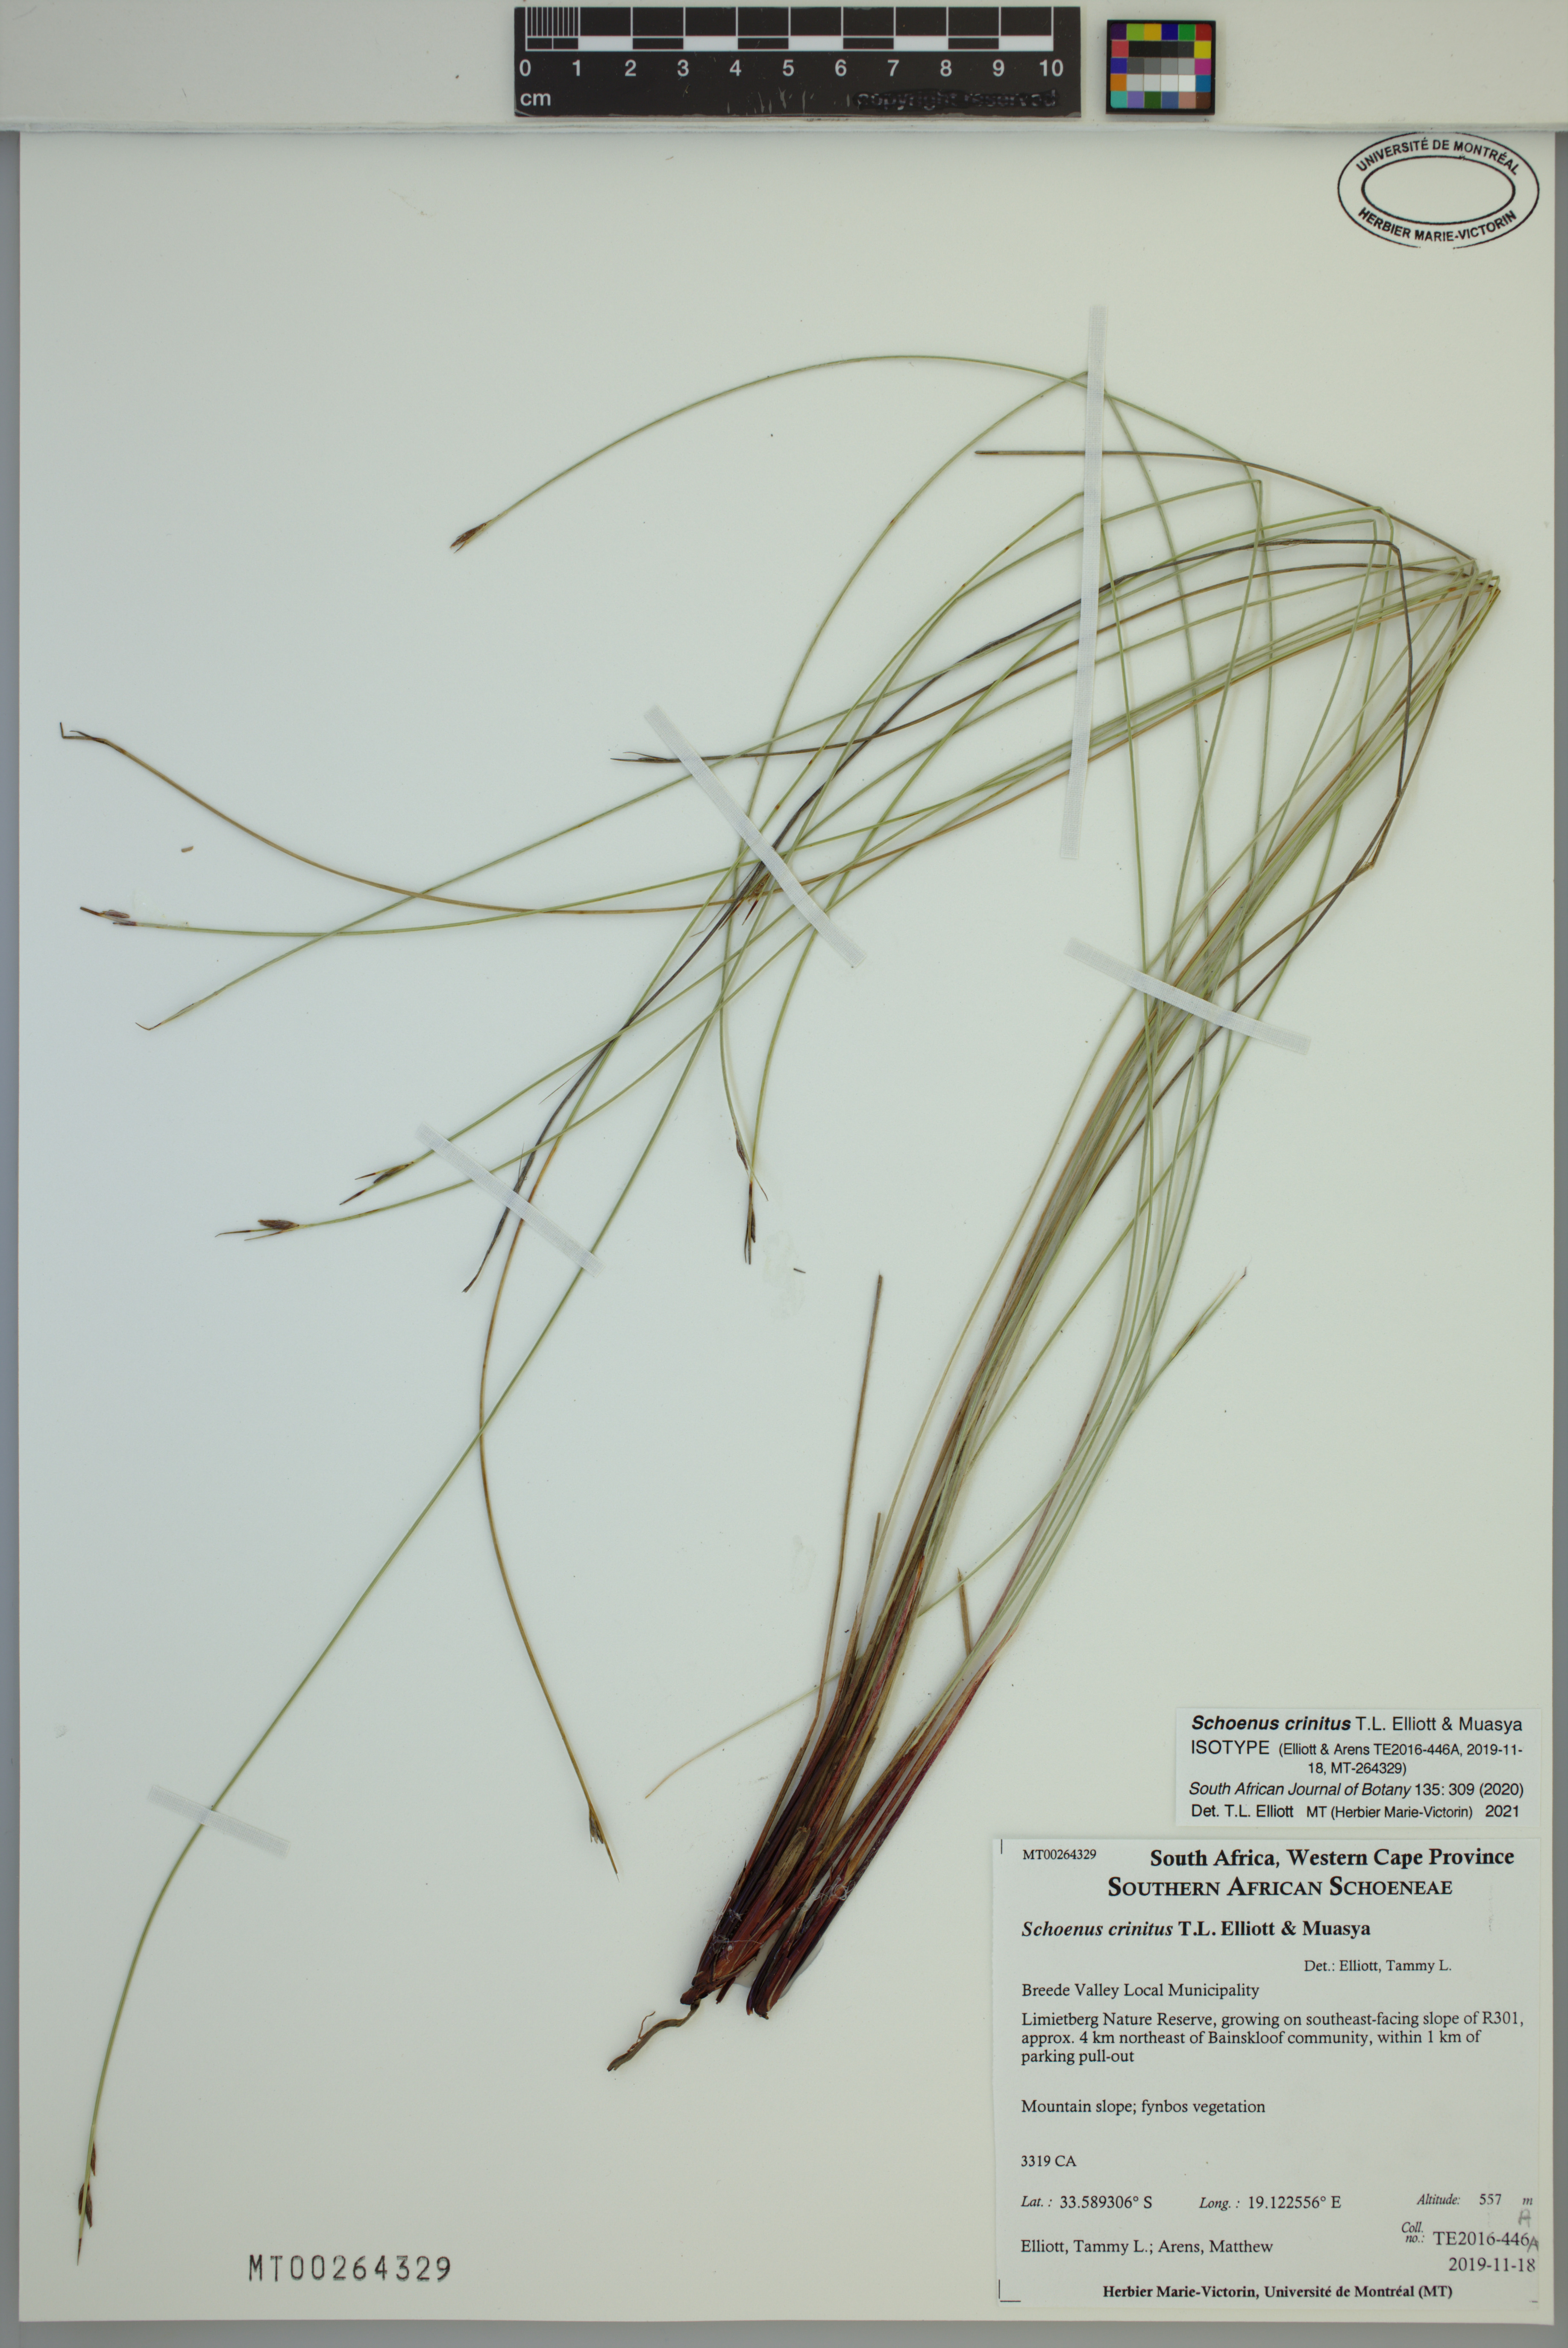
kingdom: Plantae
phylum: Tracheophyta
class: Liliopsida
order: Poales
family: Cyperaceae
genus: Schoenus
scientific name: Schoenus crinitus
